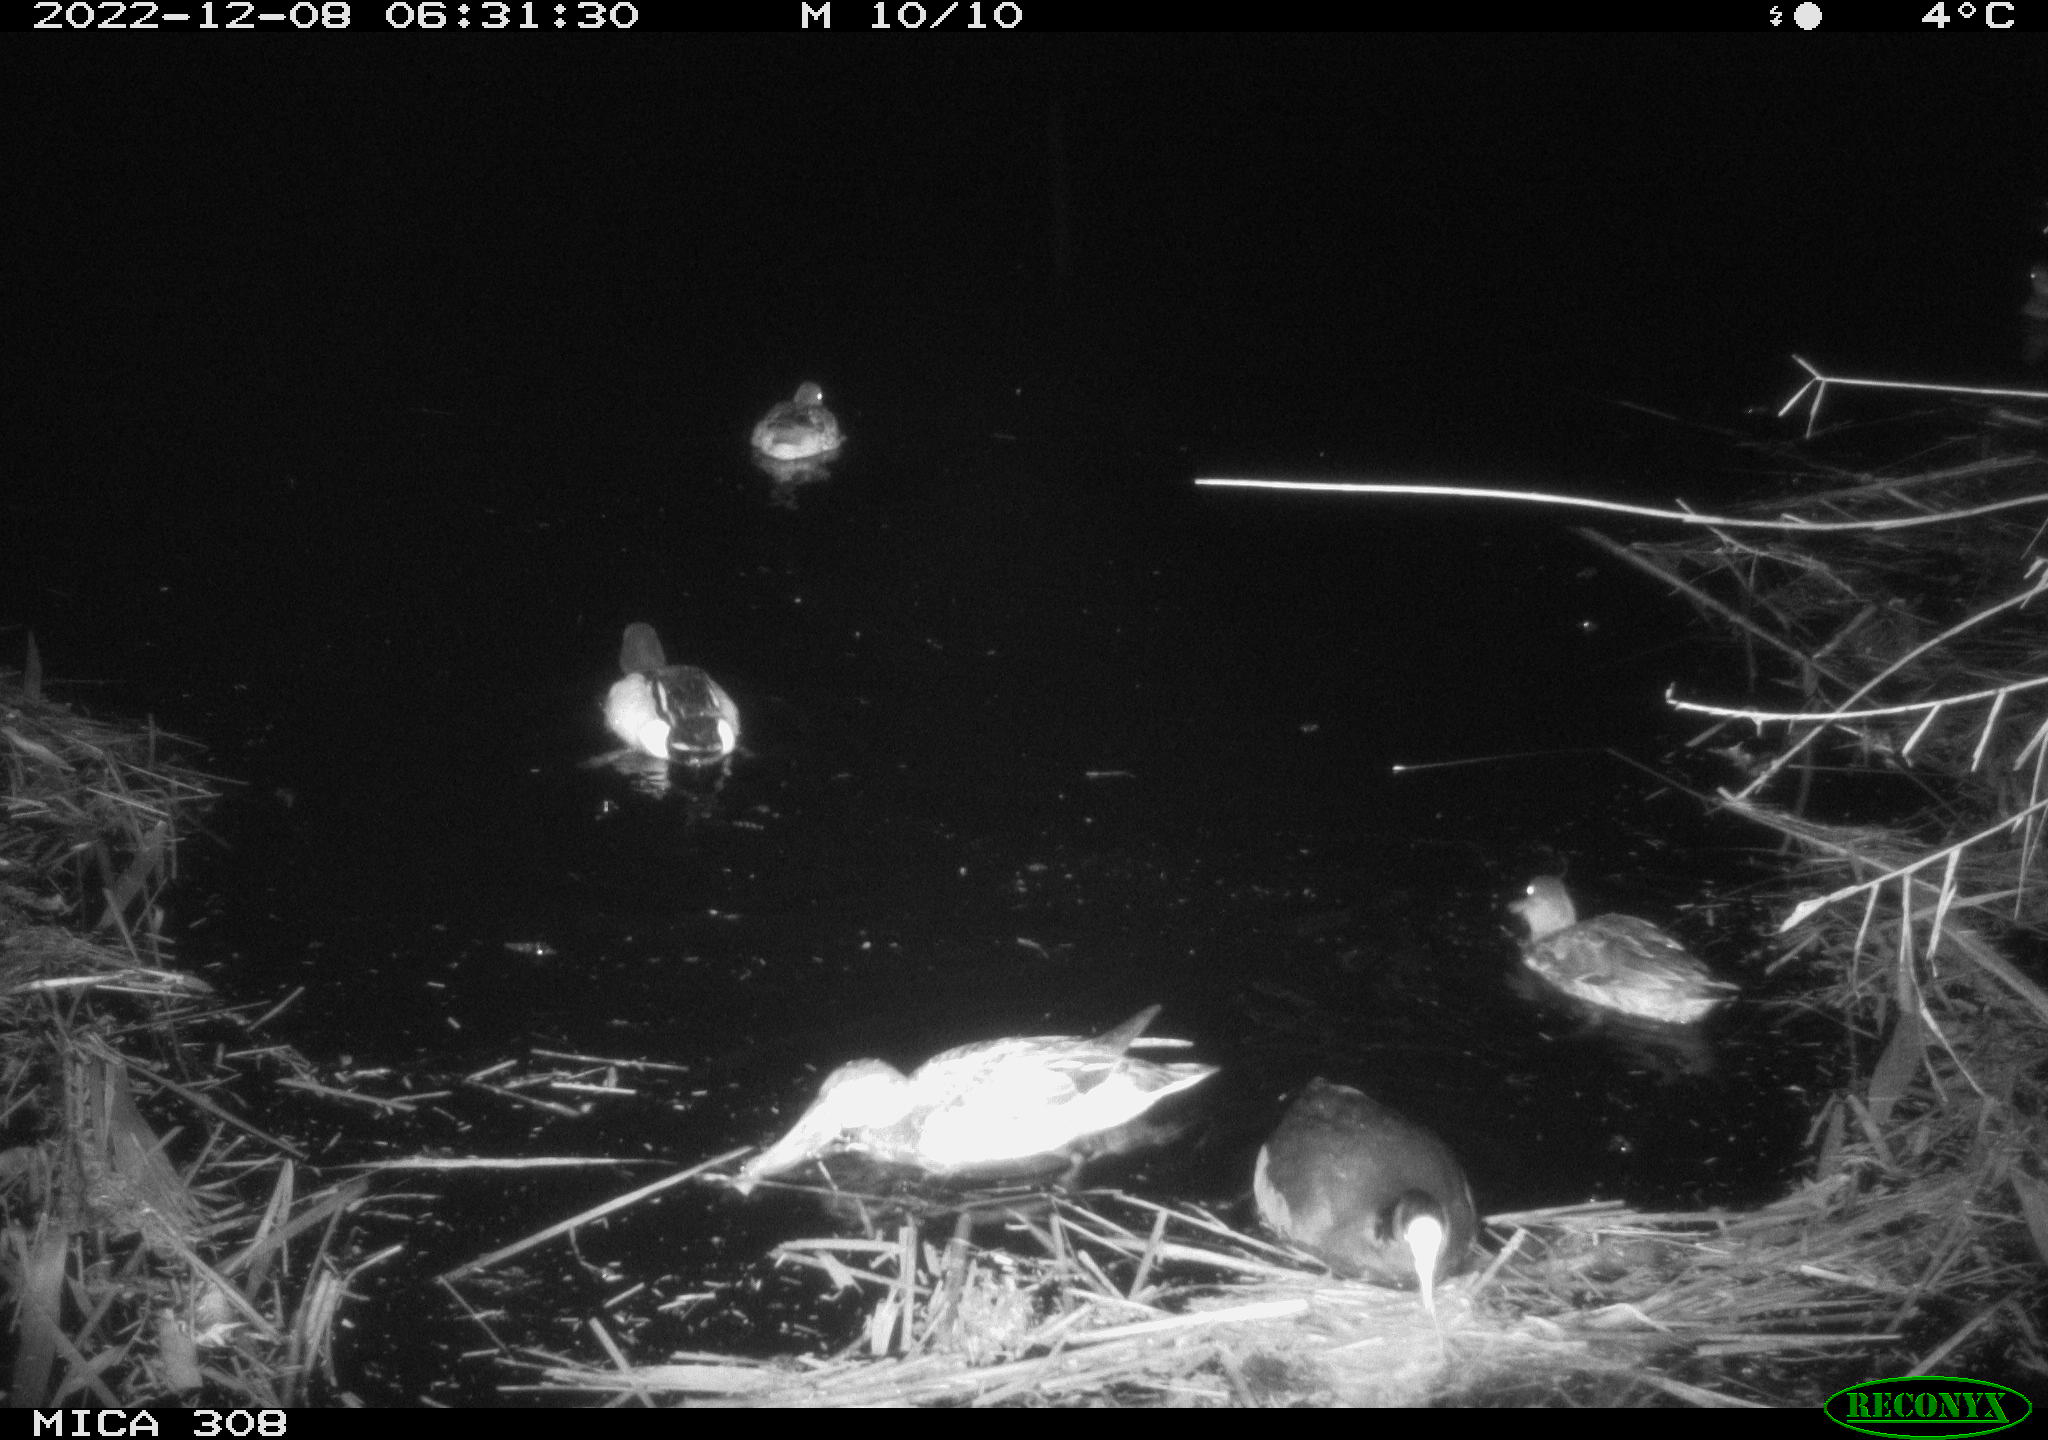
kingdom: Animalia
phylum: Chordata
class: Aves
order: Gruiformes
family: Rallidae
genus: Fulica
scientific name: Fulica atra
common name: Eurasian coot
